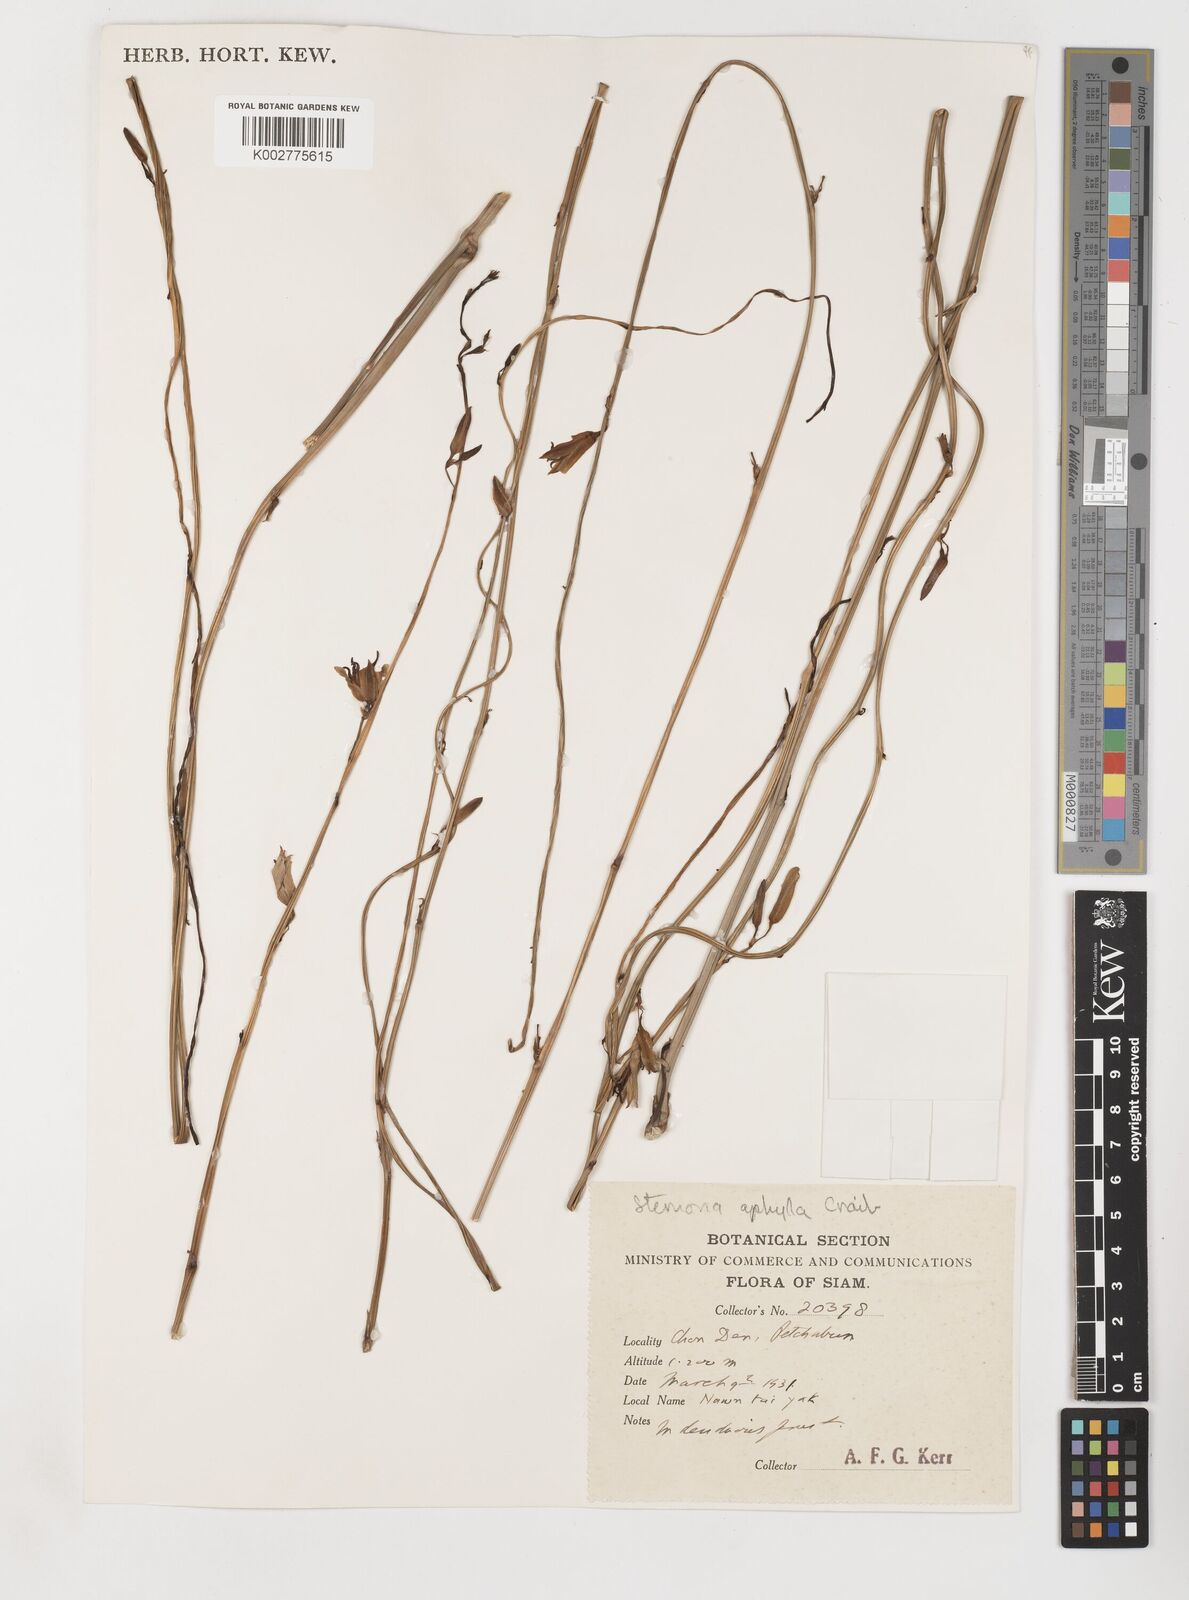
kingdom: Plantae
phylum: Tracheophyta
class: Liliopsida
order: Pandanales
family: Stemonaceae
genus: Stemona
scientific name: Stemona aphylla
